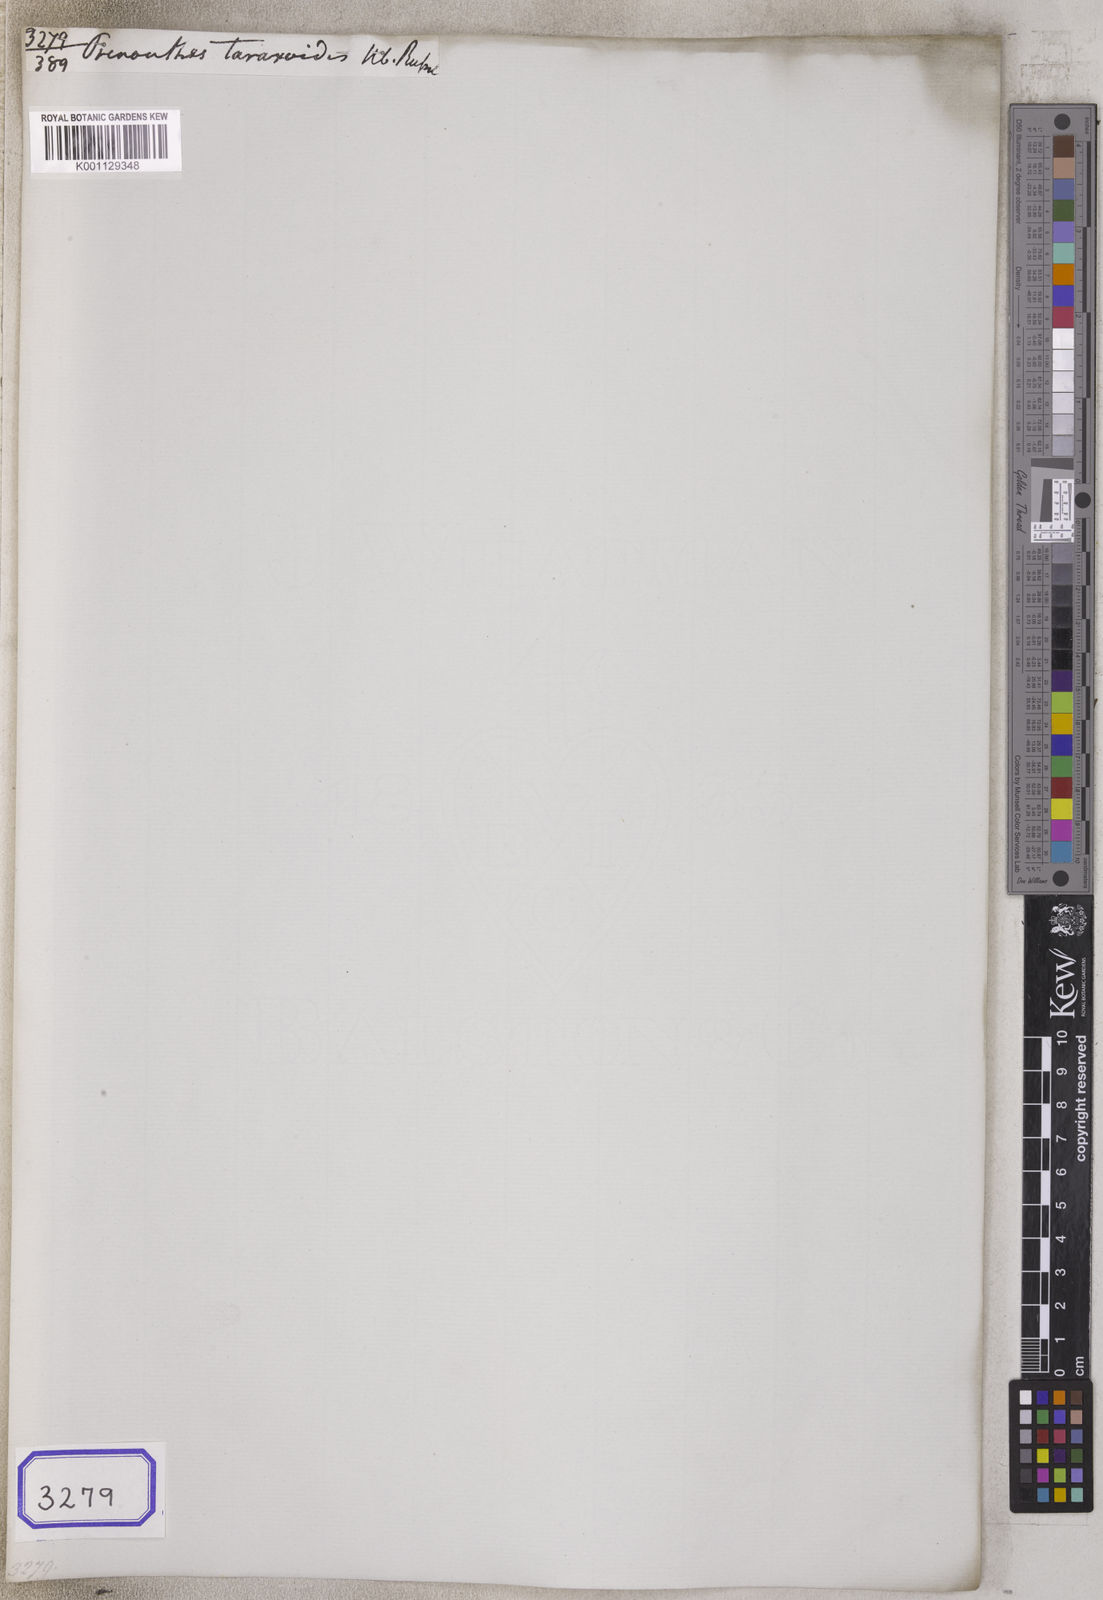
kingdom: Plantae
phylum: Tracheophyta
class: Magnoliopsida
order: Asterales
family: Asteraceae
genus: Lactuca
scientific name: Lactuca indica
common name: Wild lettuce
